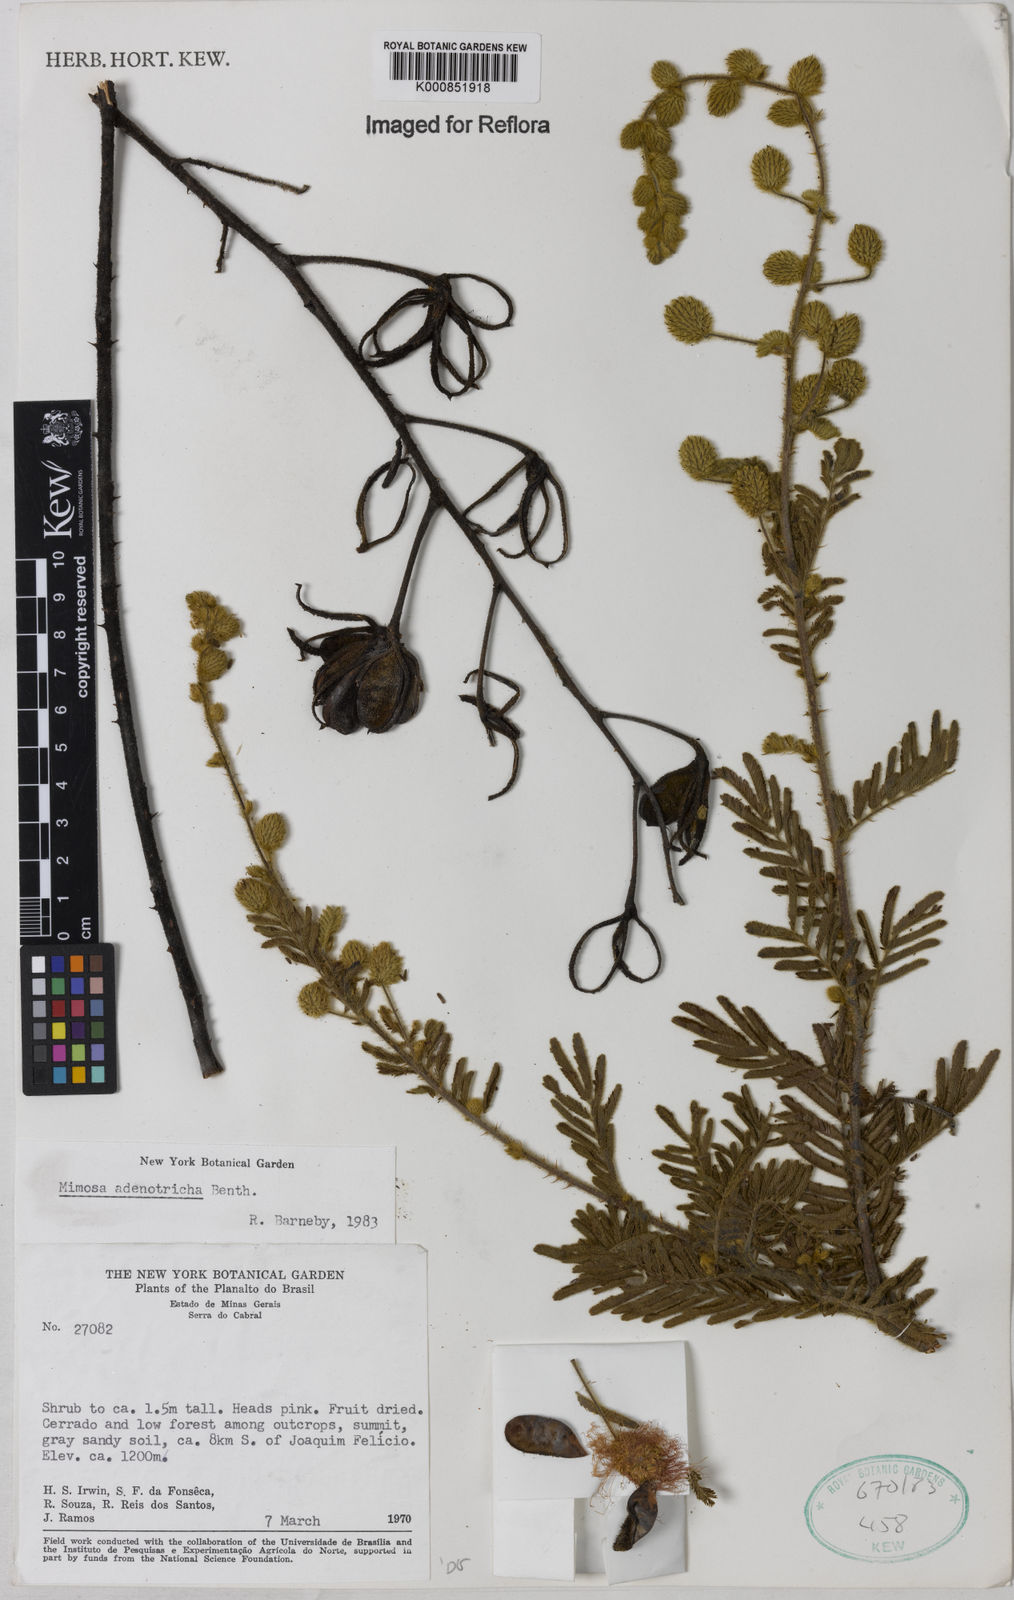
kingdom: Plantae
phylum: Tracheophyta
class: Magnoliopsida
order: Fabales
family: Fabaceae
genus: Mimosa
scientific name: Mimosa adenotricha
